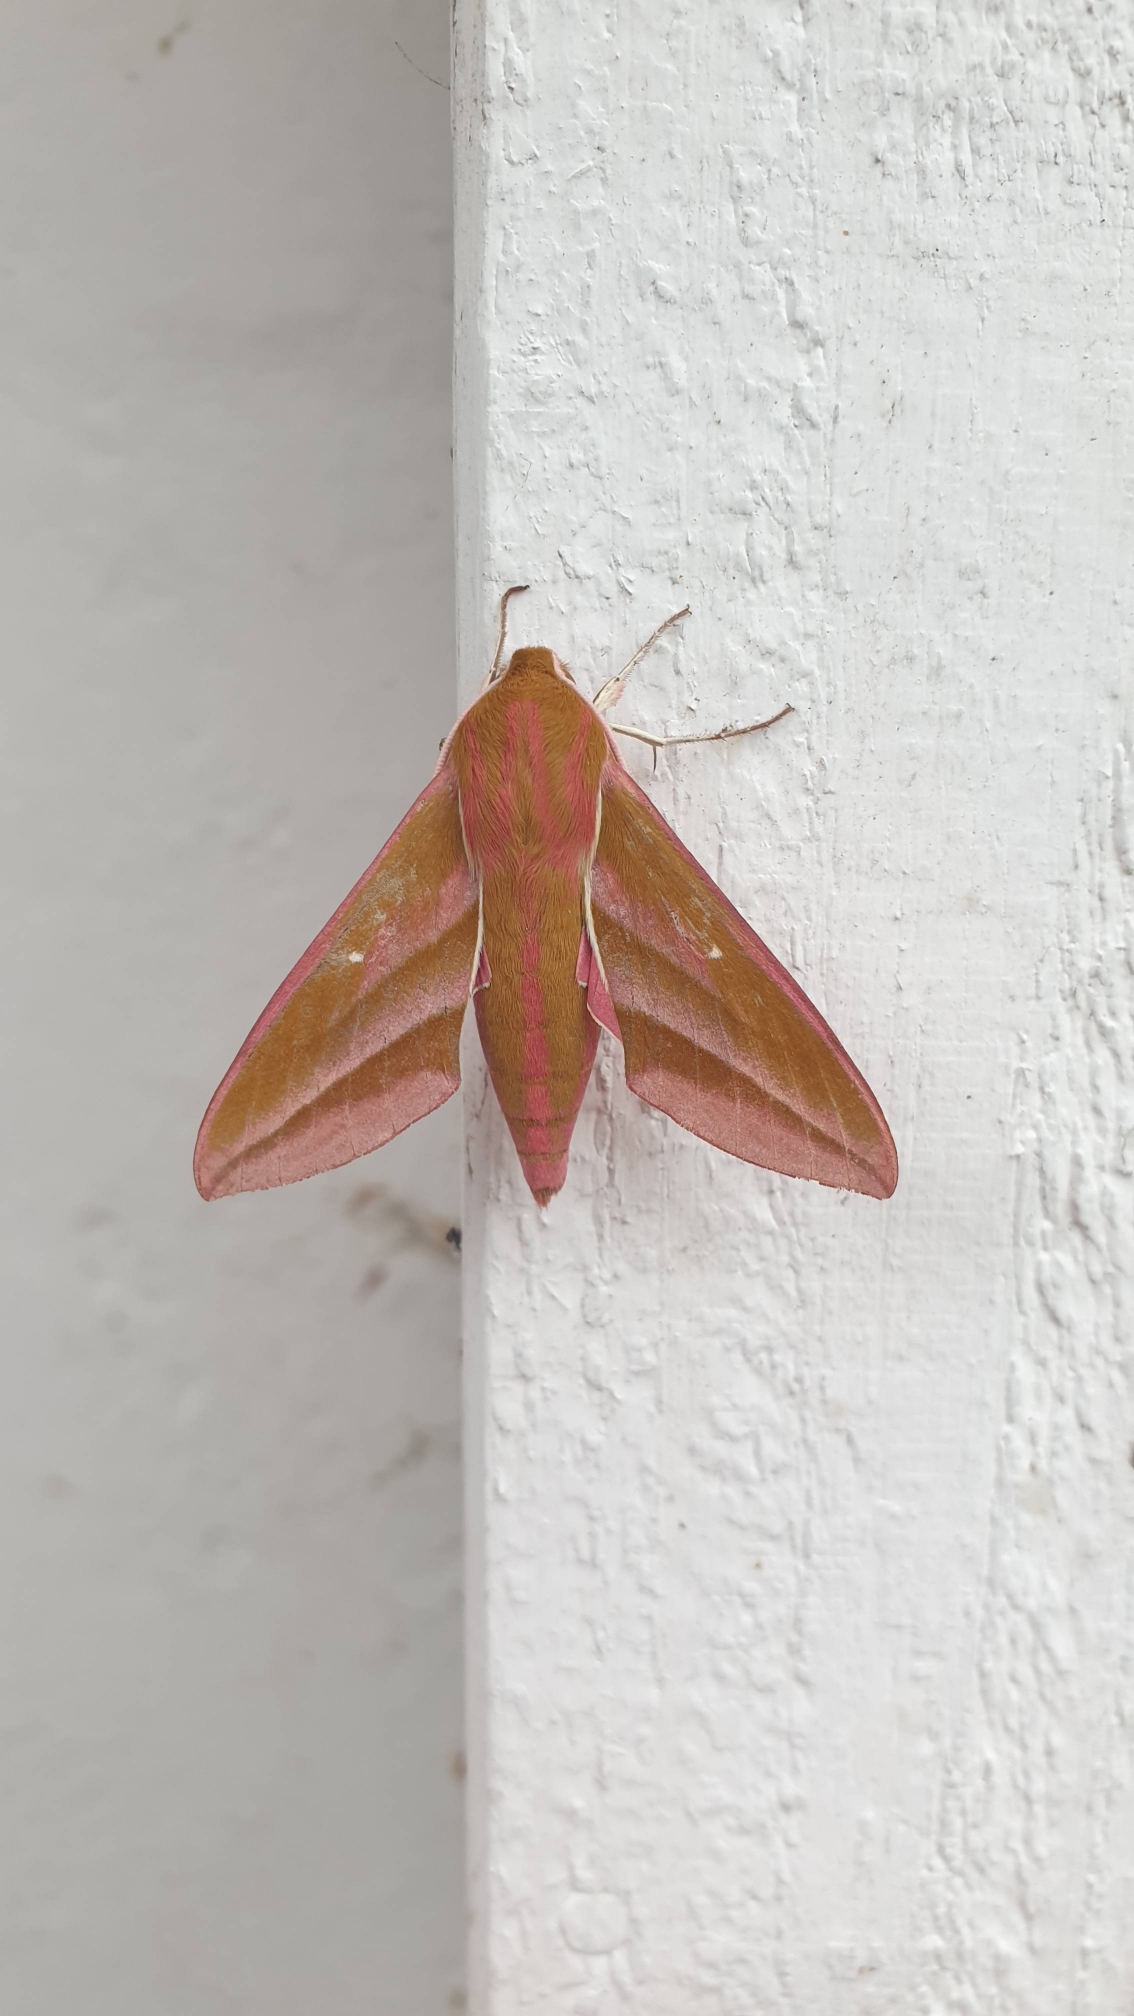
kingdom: Animalia
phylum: Arthropoda
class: Insecta
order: Lepidoptera
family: Sphingidae
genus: Deilephila
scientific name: Deilephila elpenor
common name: Dueurtsværmer
